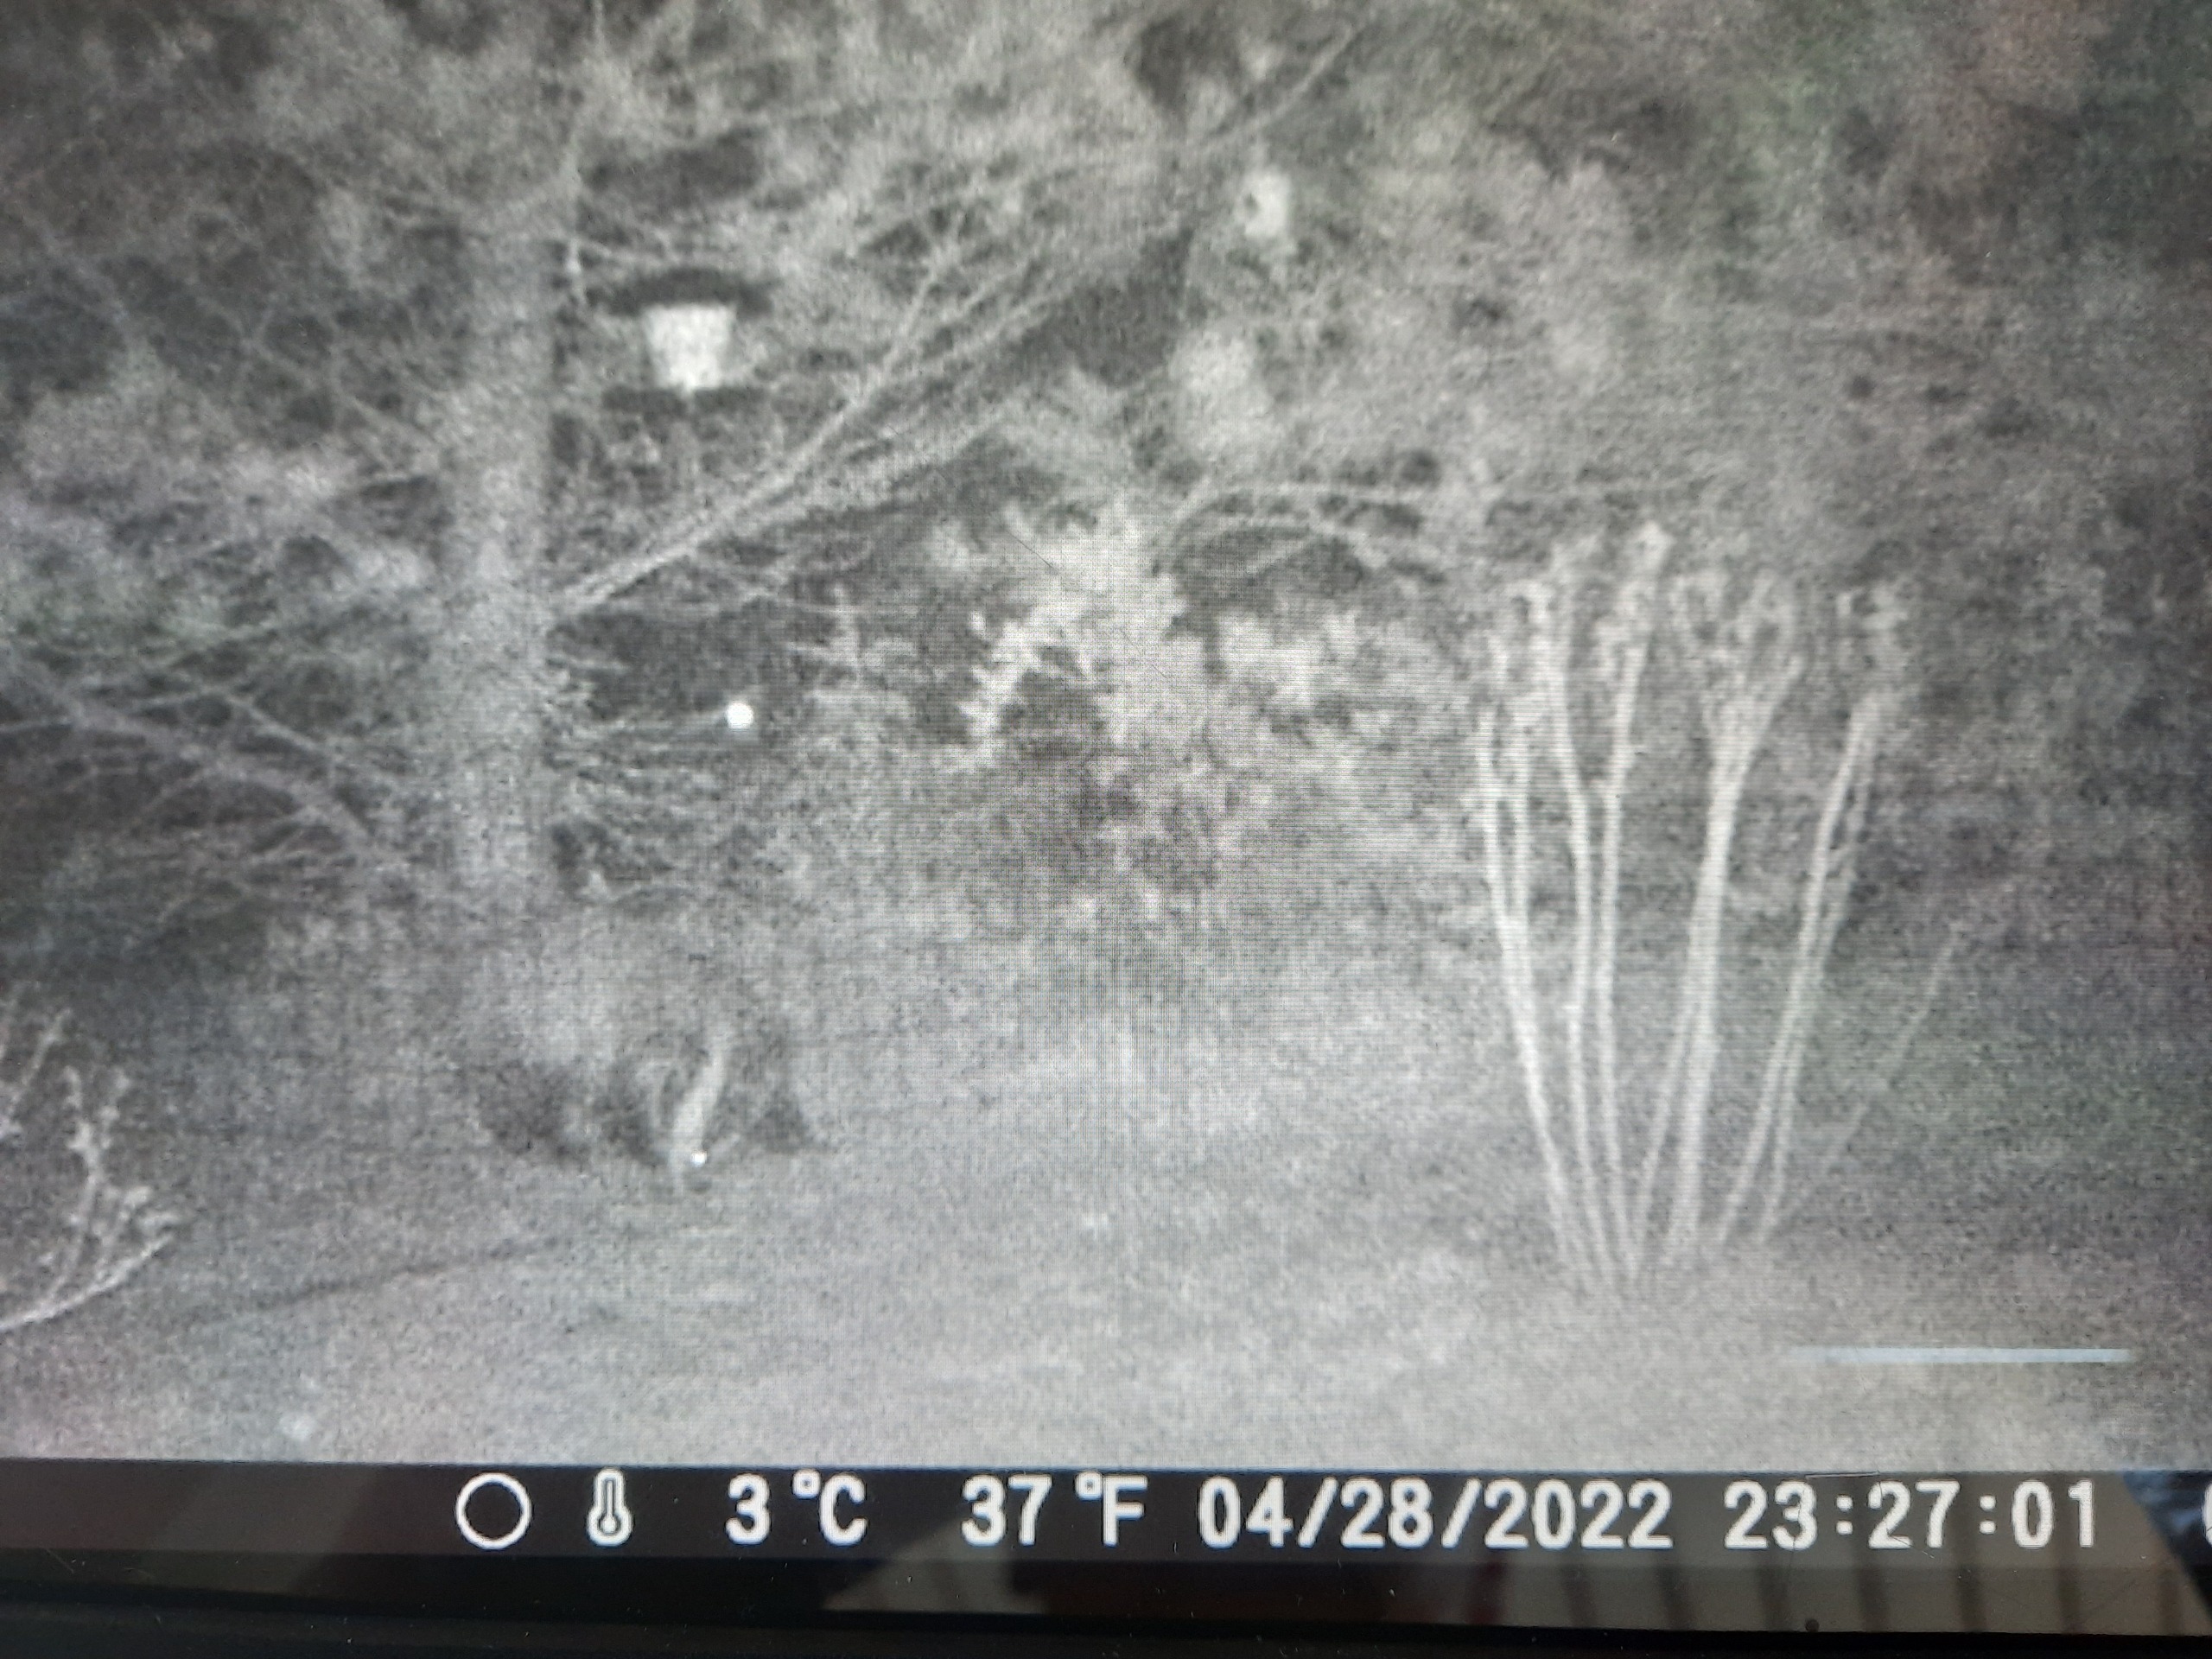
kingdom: Animalia
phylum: Chordata
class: Mammalia
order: Carnivora
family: Mustelidae
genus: Meles
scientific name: Meles meles
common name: Grævling
